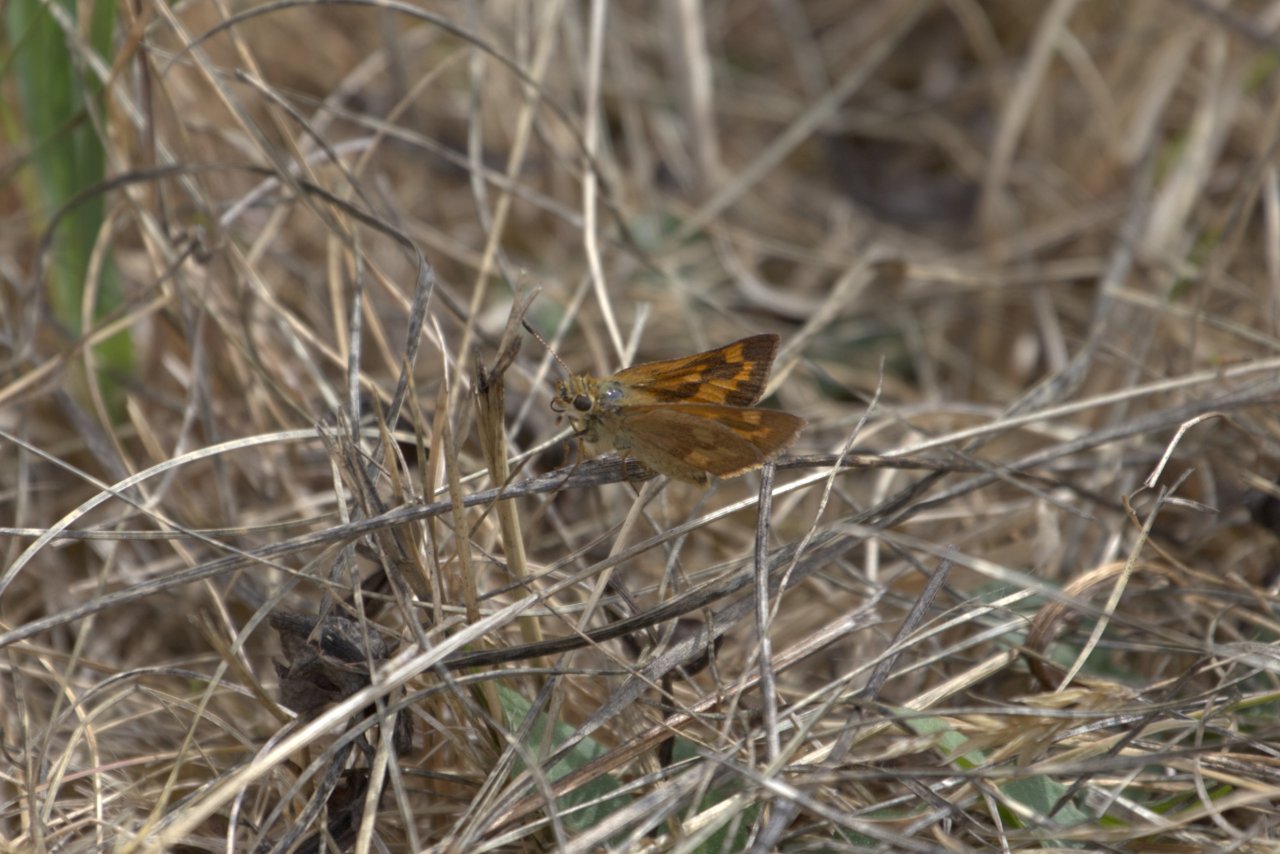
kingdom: Animalia
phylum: Arthropoda
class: Insecta
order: Lepidoptera
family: Hesperiidae
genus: Ochlodes
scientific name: Ochlodes sylvanoides
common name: Woodland Skipper
